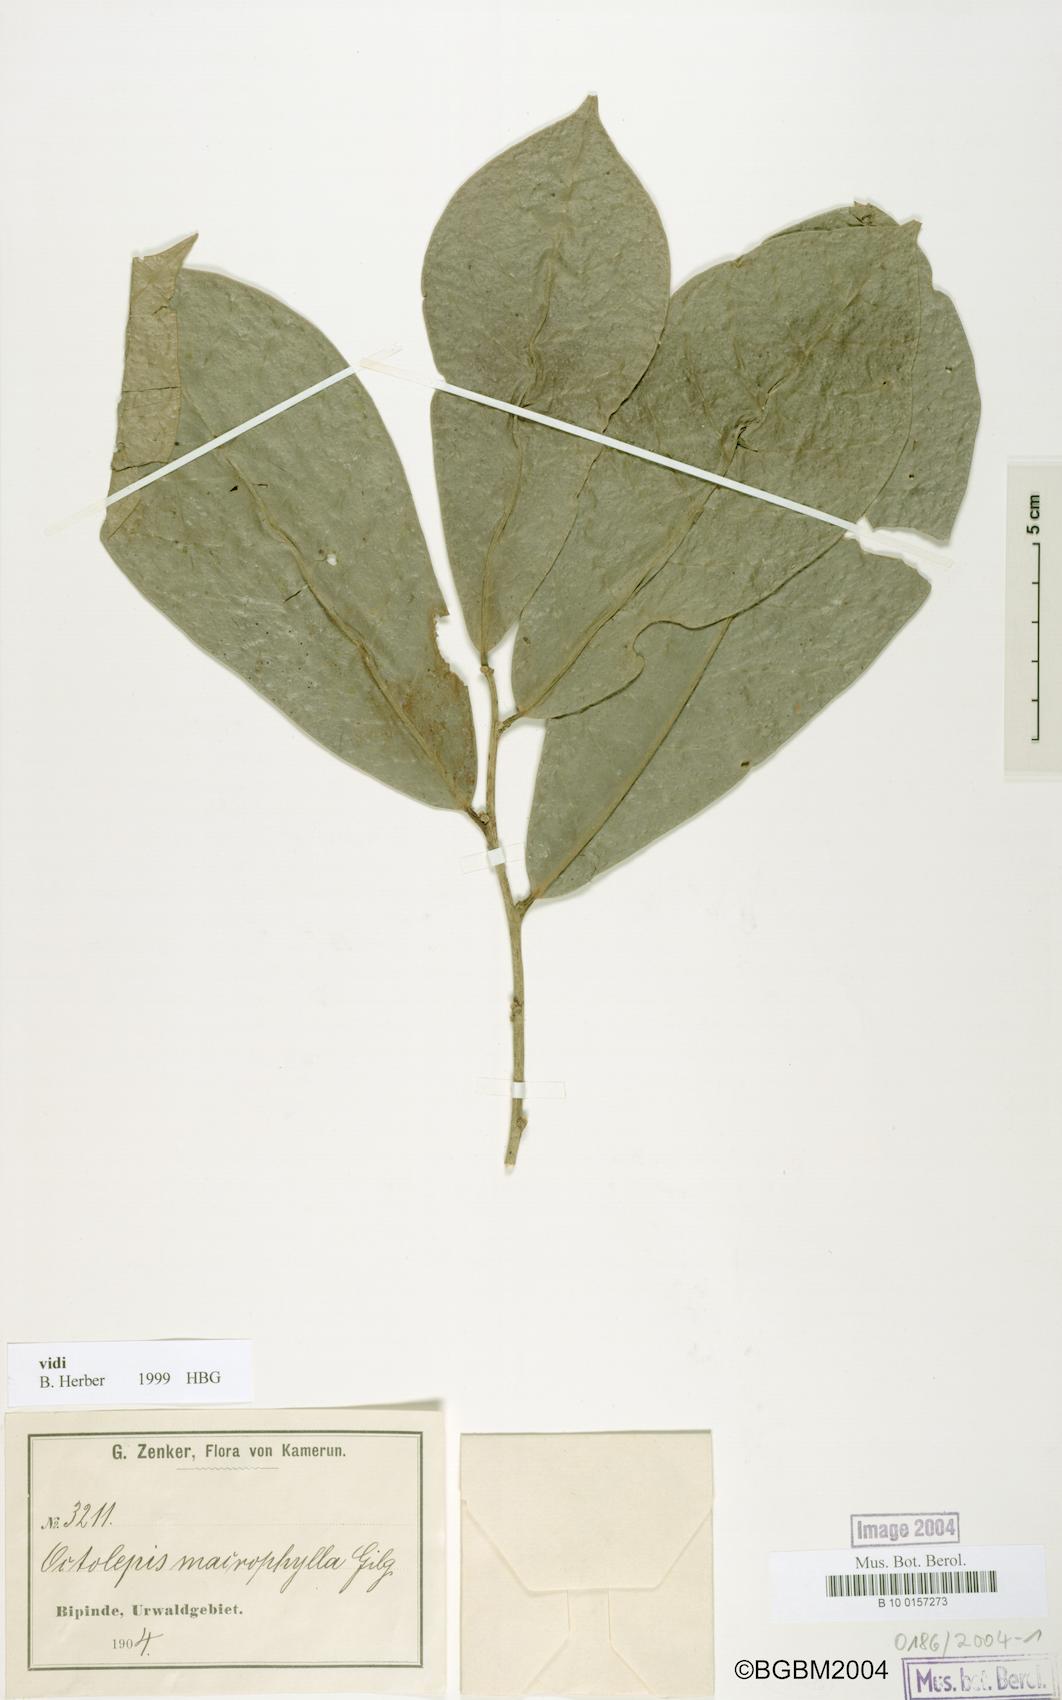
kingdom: Plantae
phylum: Tracheophyta
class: Magnoliopsida
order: Malvales
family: Thymelaeaceae
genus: Octolepis
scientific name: Octolepis casearia
